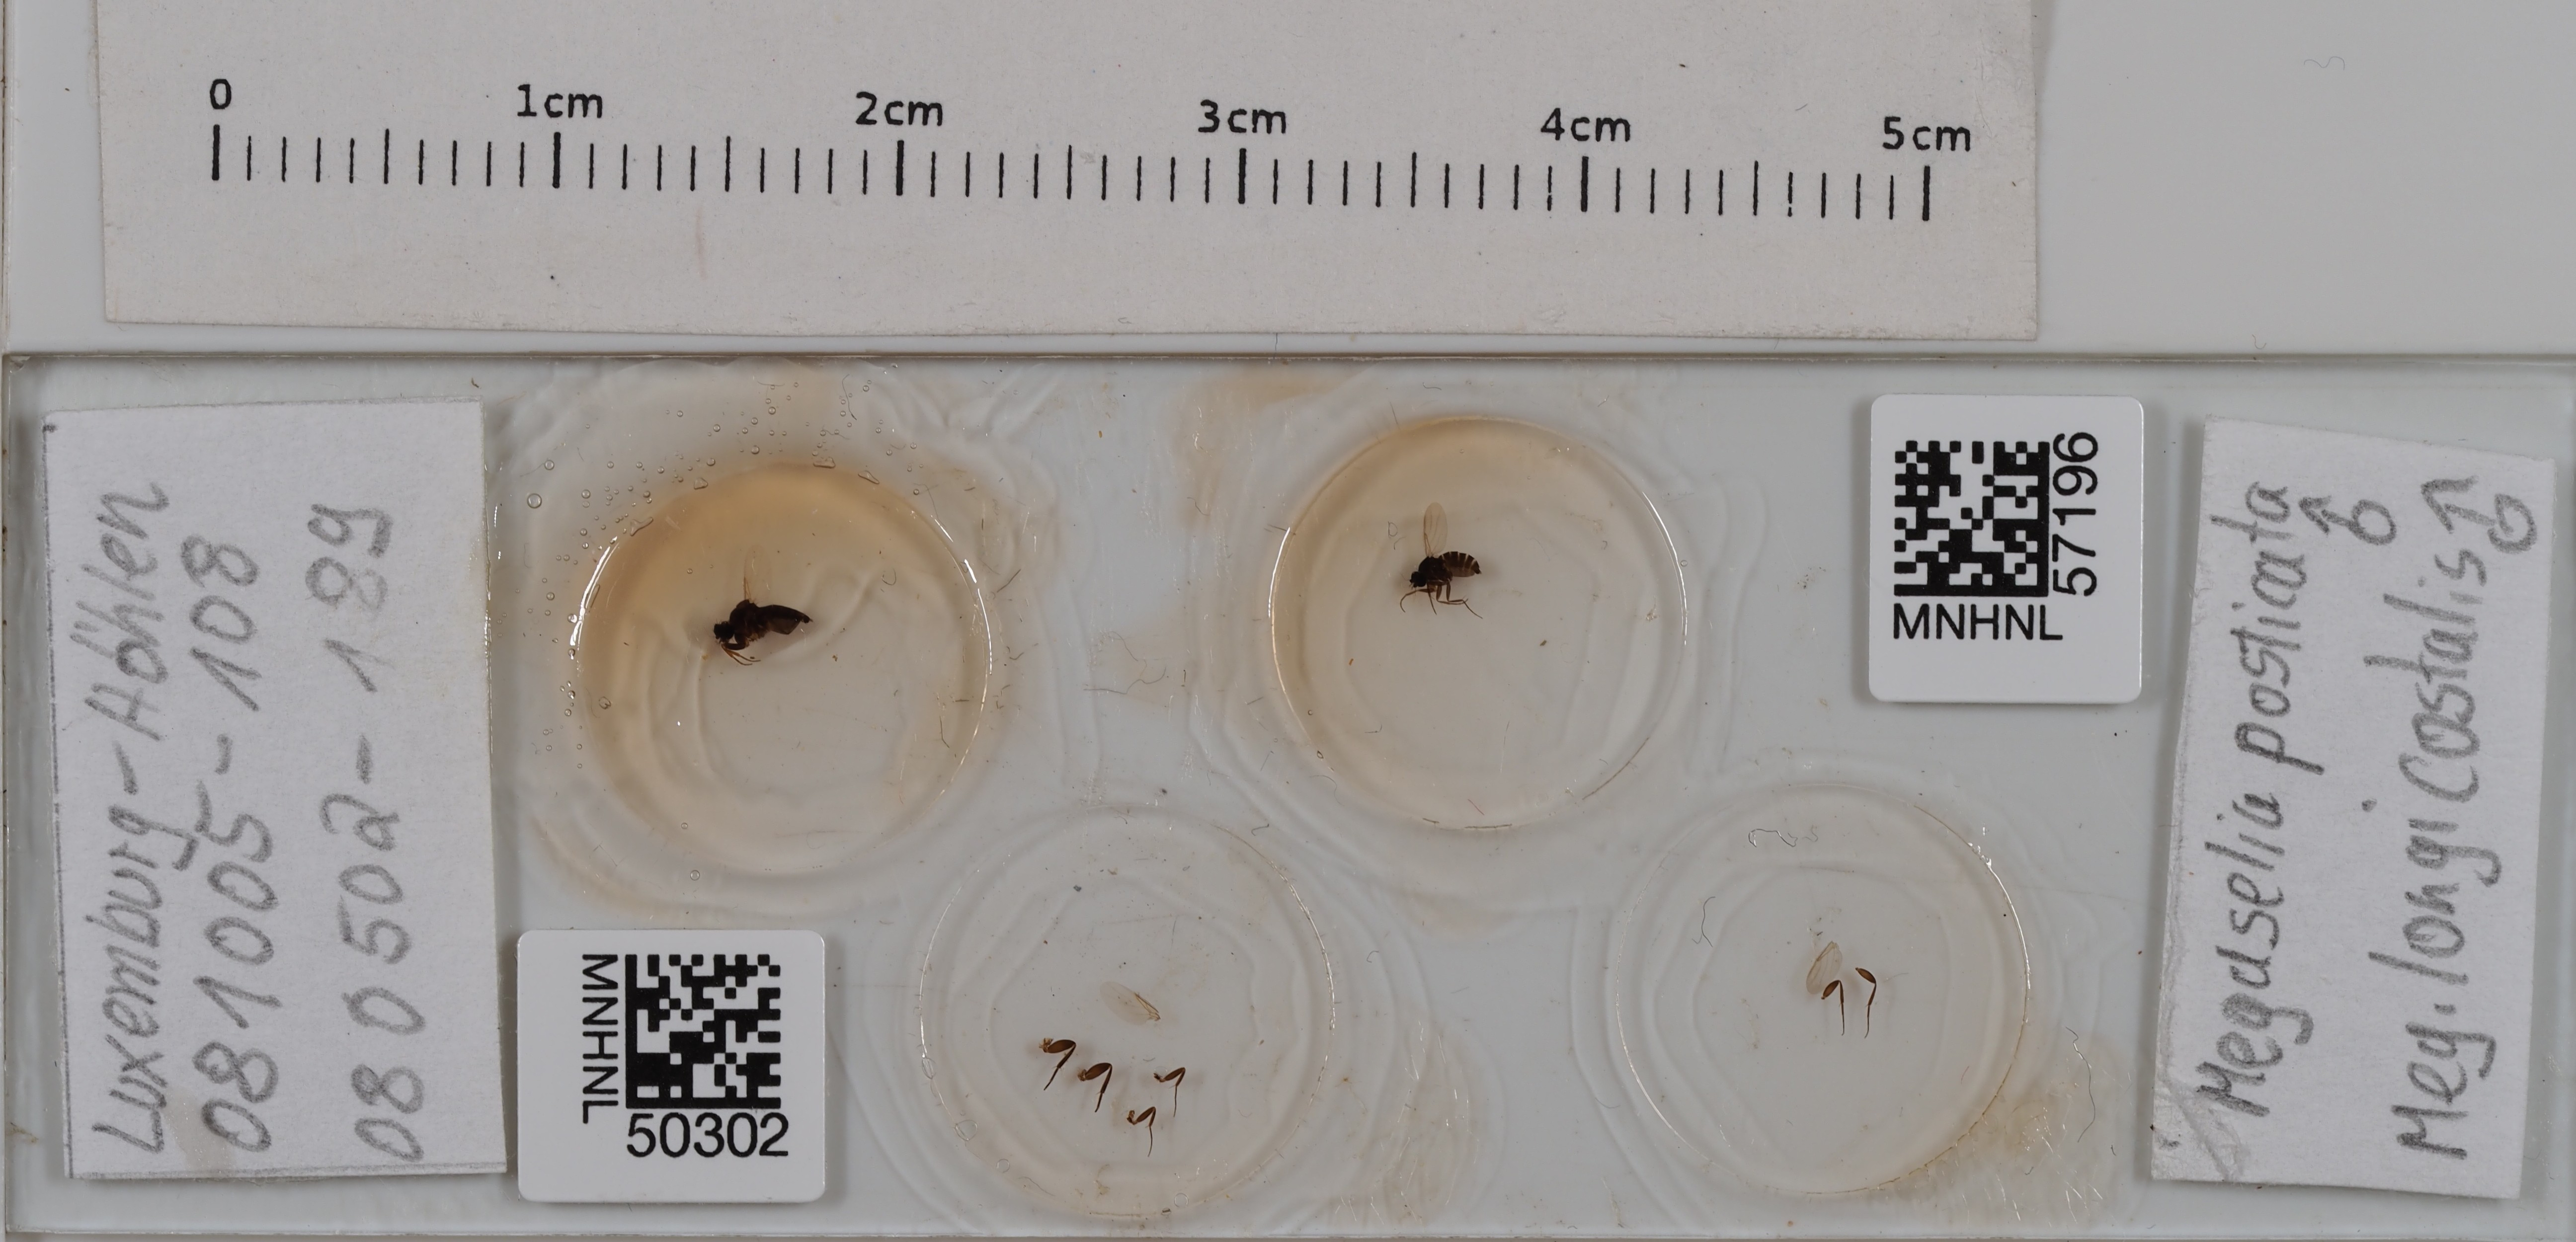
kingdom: Animalia
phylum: Arthropoda
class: Insecta
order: Diptera
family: Phoridae
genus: Megaselia
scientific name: Megaselia posticata
